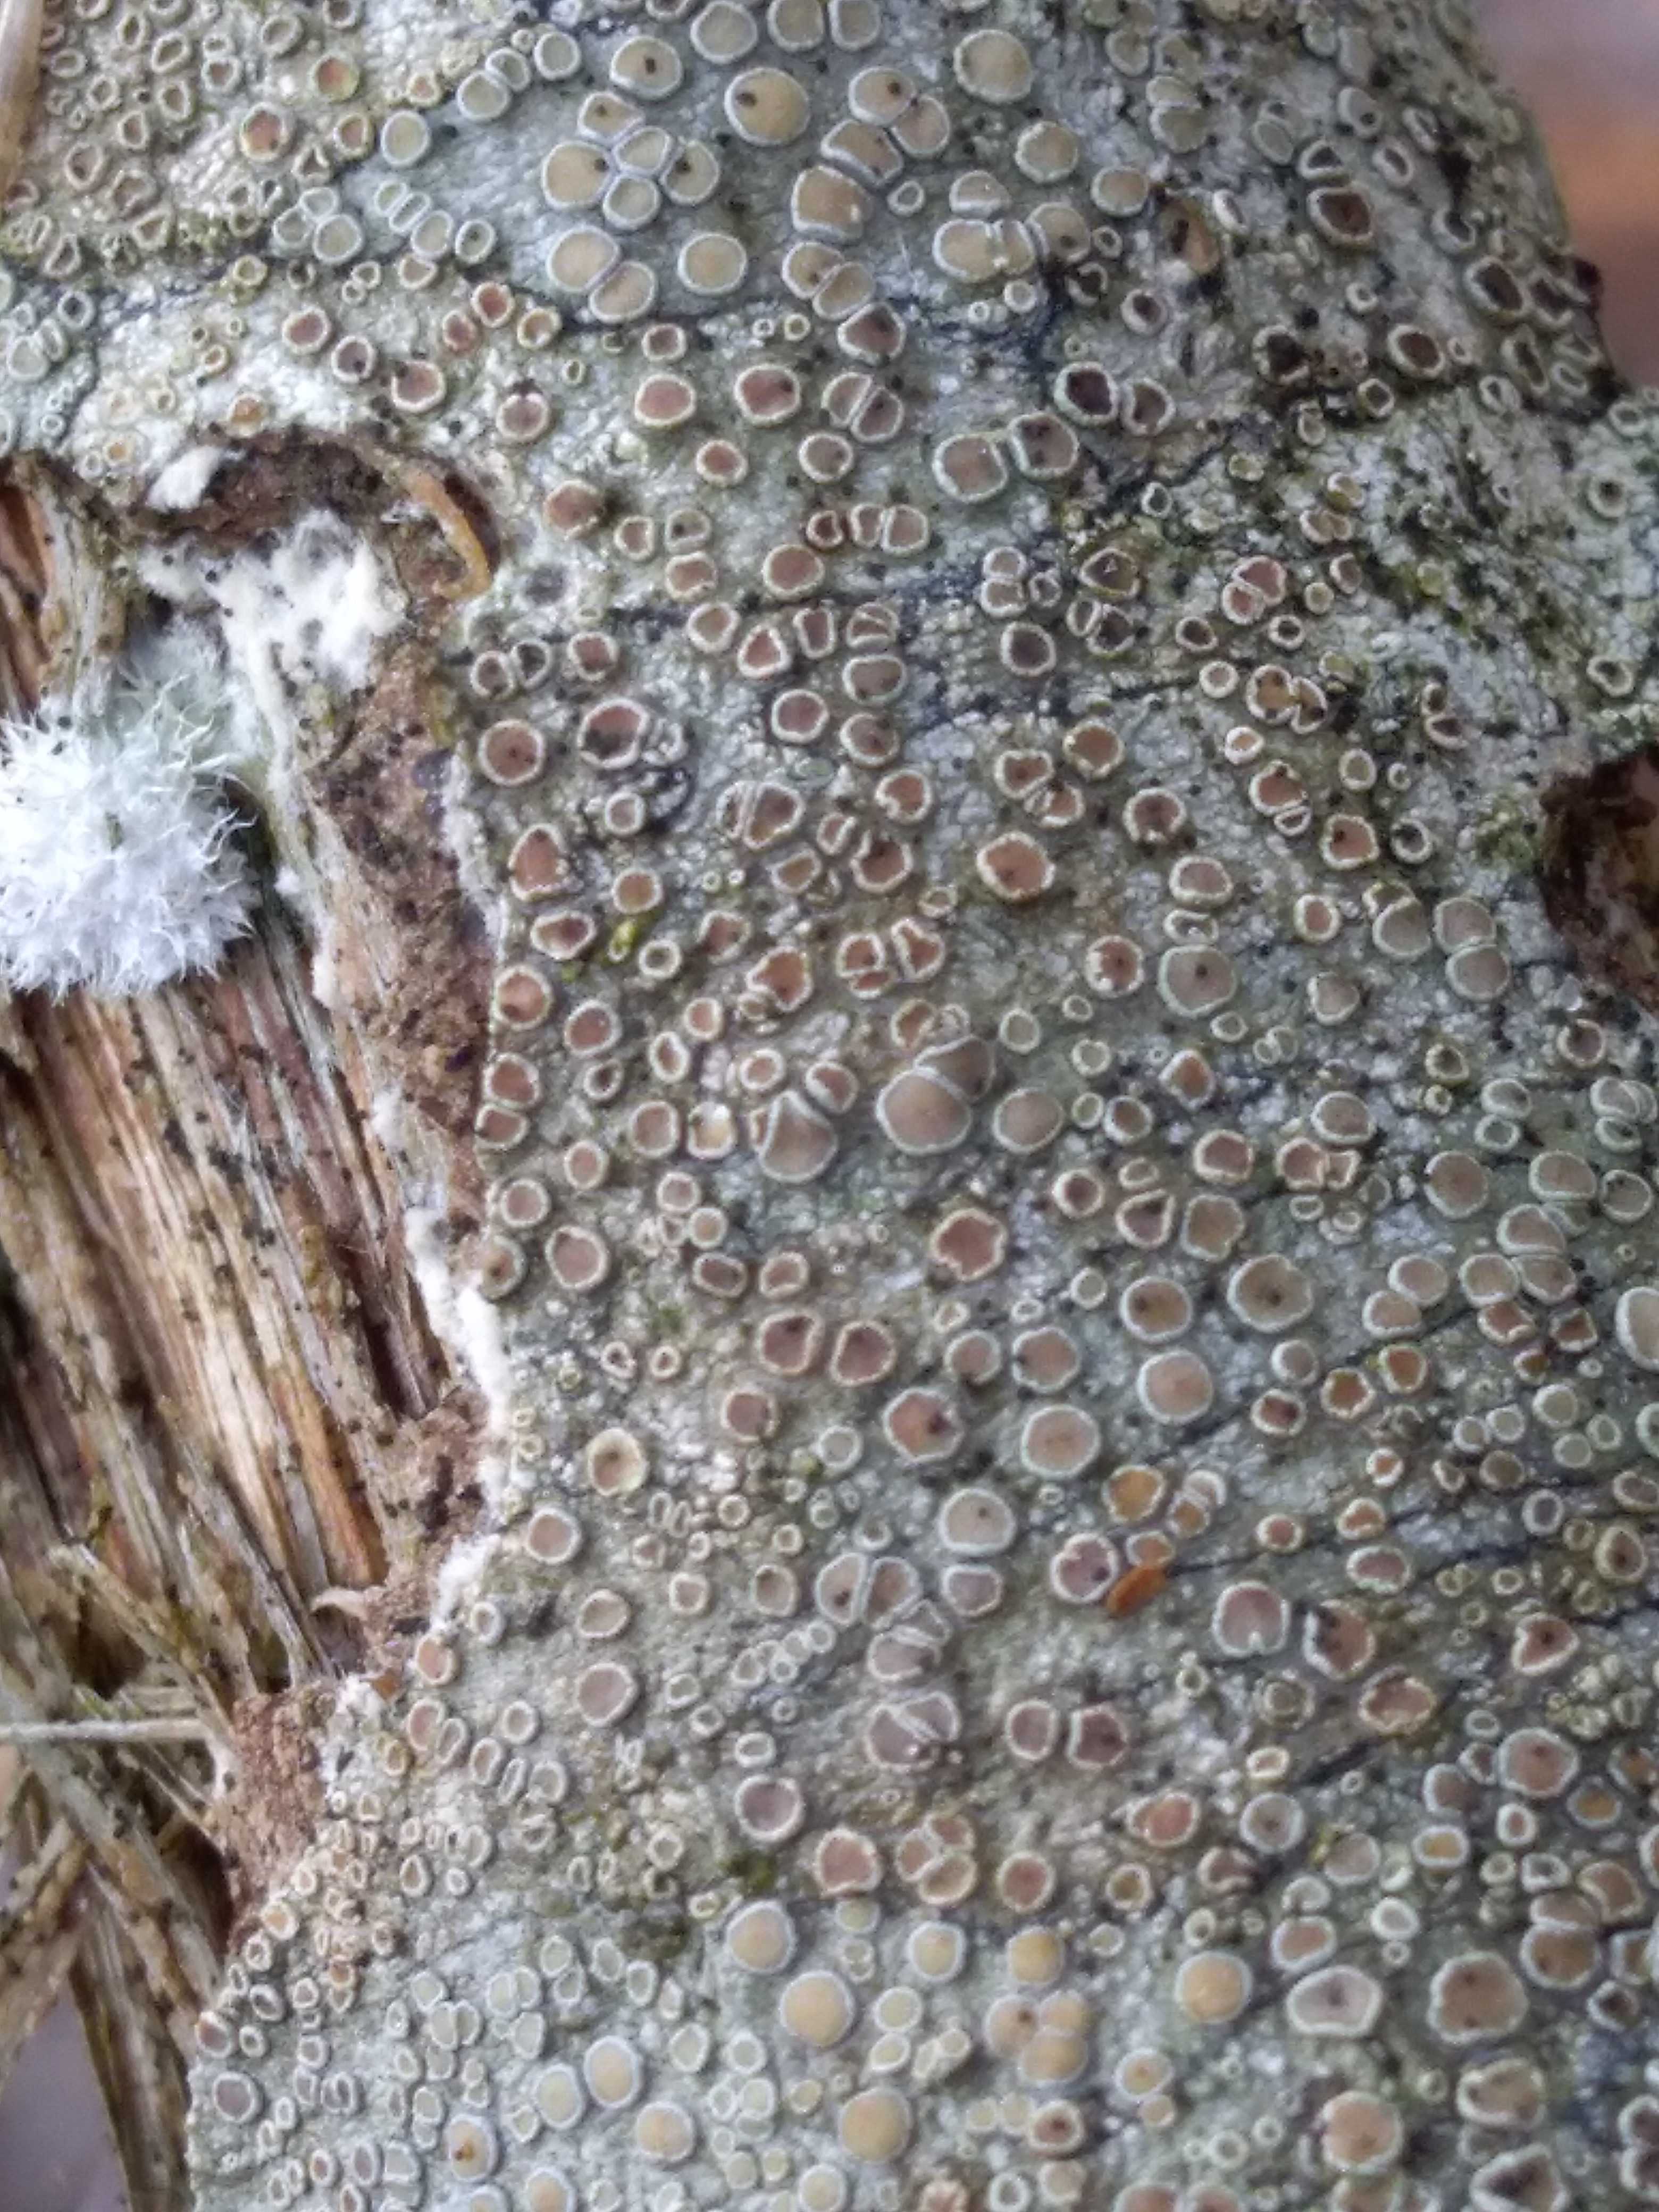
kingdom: Fungi
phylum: Ascomycota
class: Lecanoromycetes
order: Lecanorales
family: Lecanoraceae
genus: Lecanora
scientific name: Lecanora chlarotera
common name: brun kantskivelav
